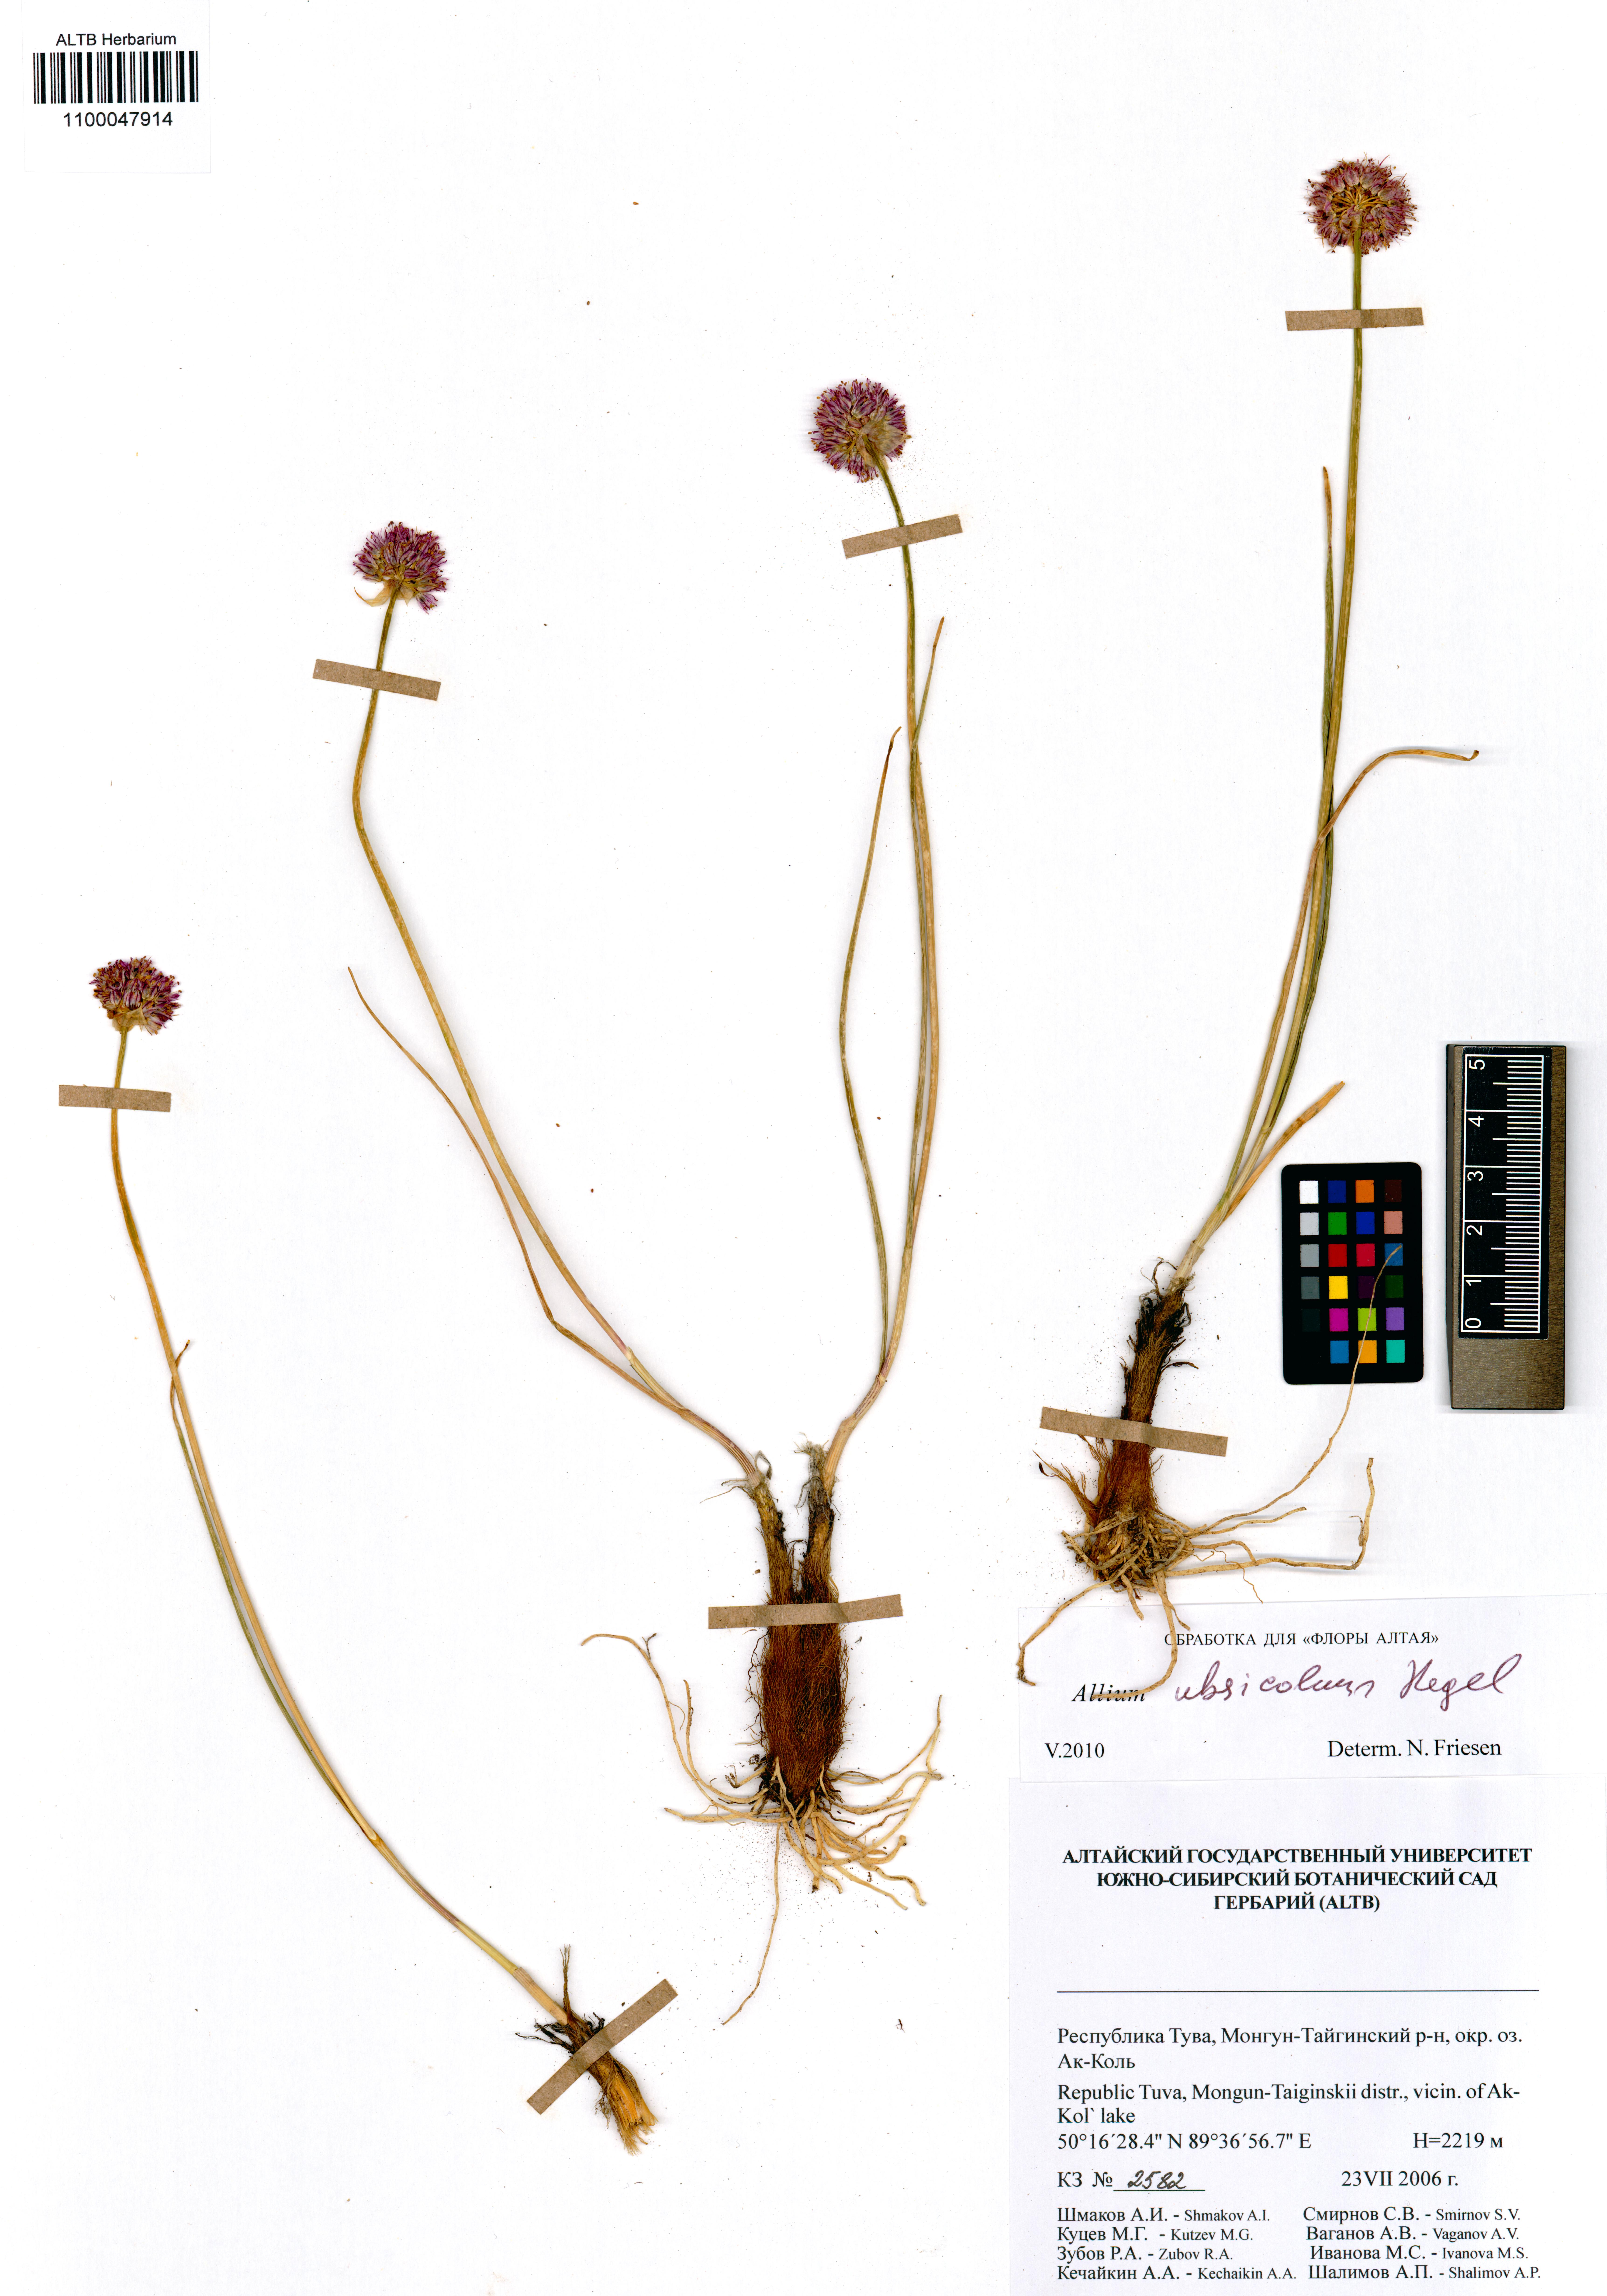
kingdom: Plantae
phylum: Tracheophyta
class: Liliopsida
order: Asparagales
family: Amaryllidaceae
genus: Allium
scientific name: Allium ubsicola
